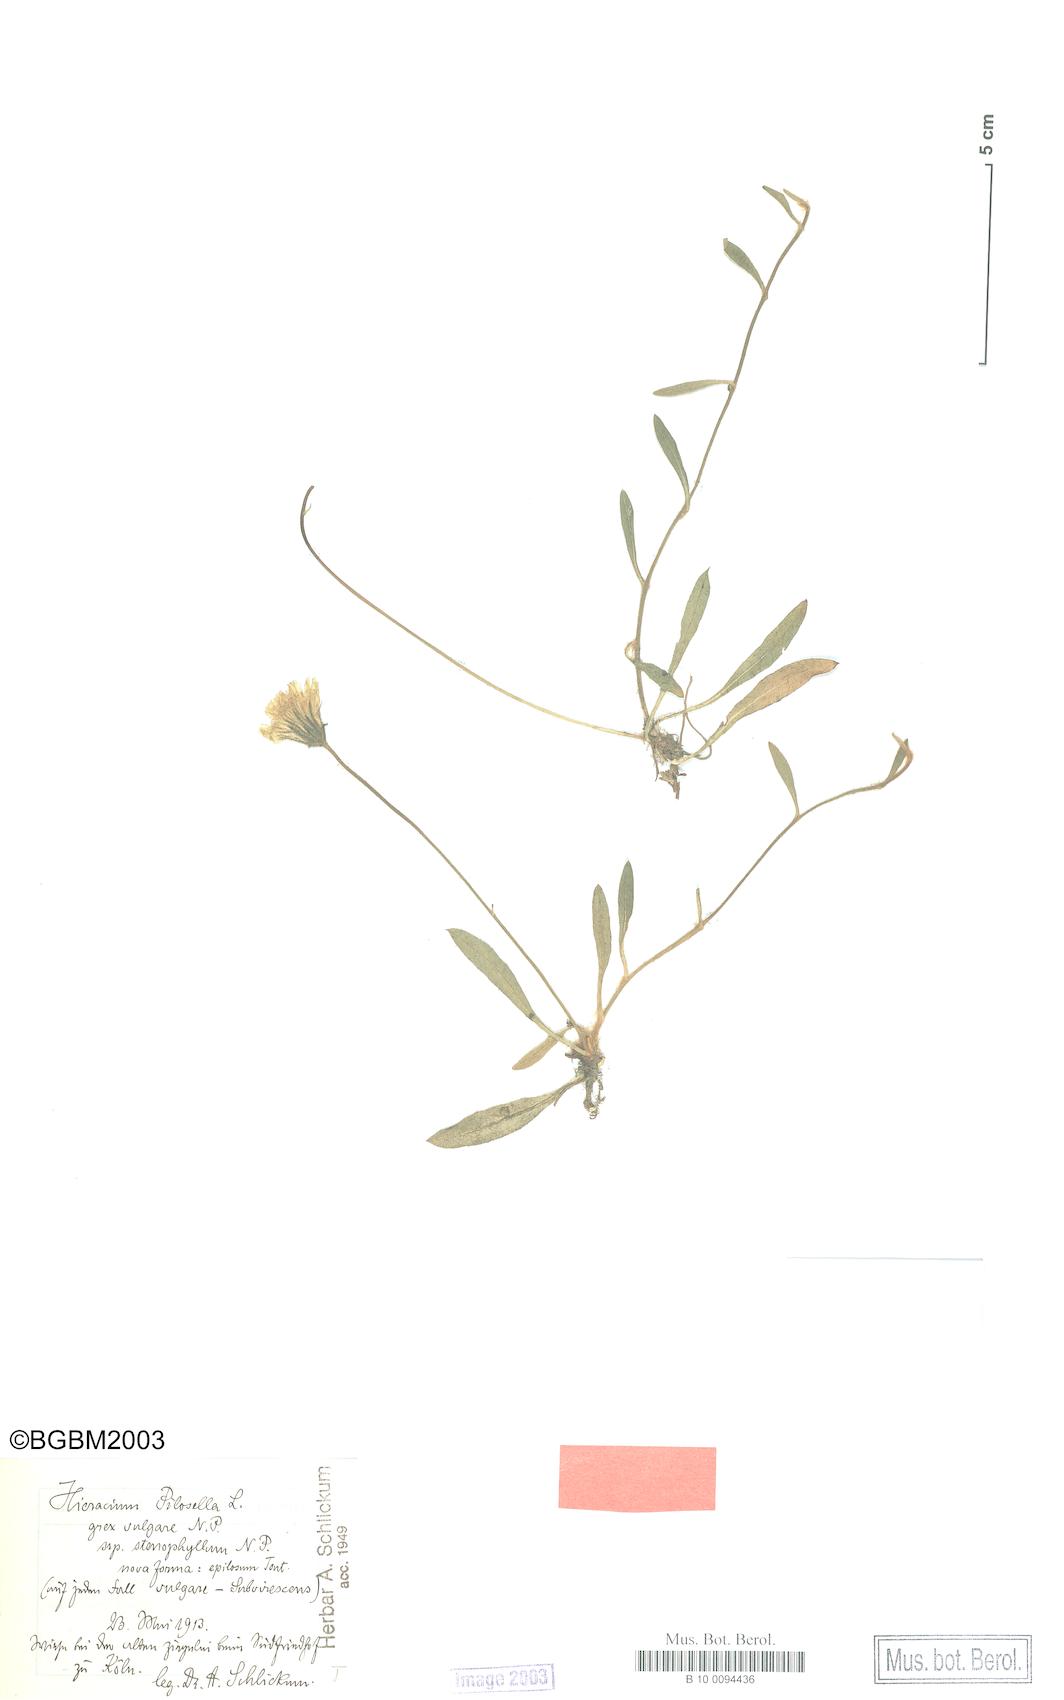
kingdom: Plantae
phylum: Tracheophyta
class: Magnoliopsida
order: Asterales
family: Asteraceae
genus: Pilosella
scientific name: Pilosella officinarum
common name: Mouse-ear hawkweed
